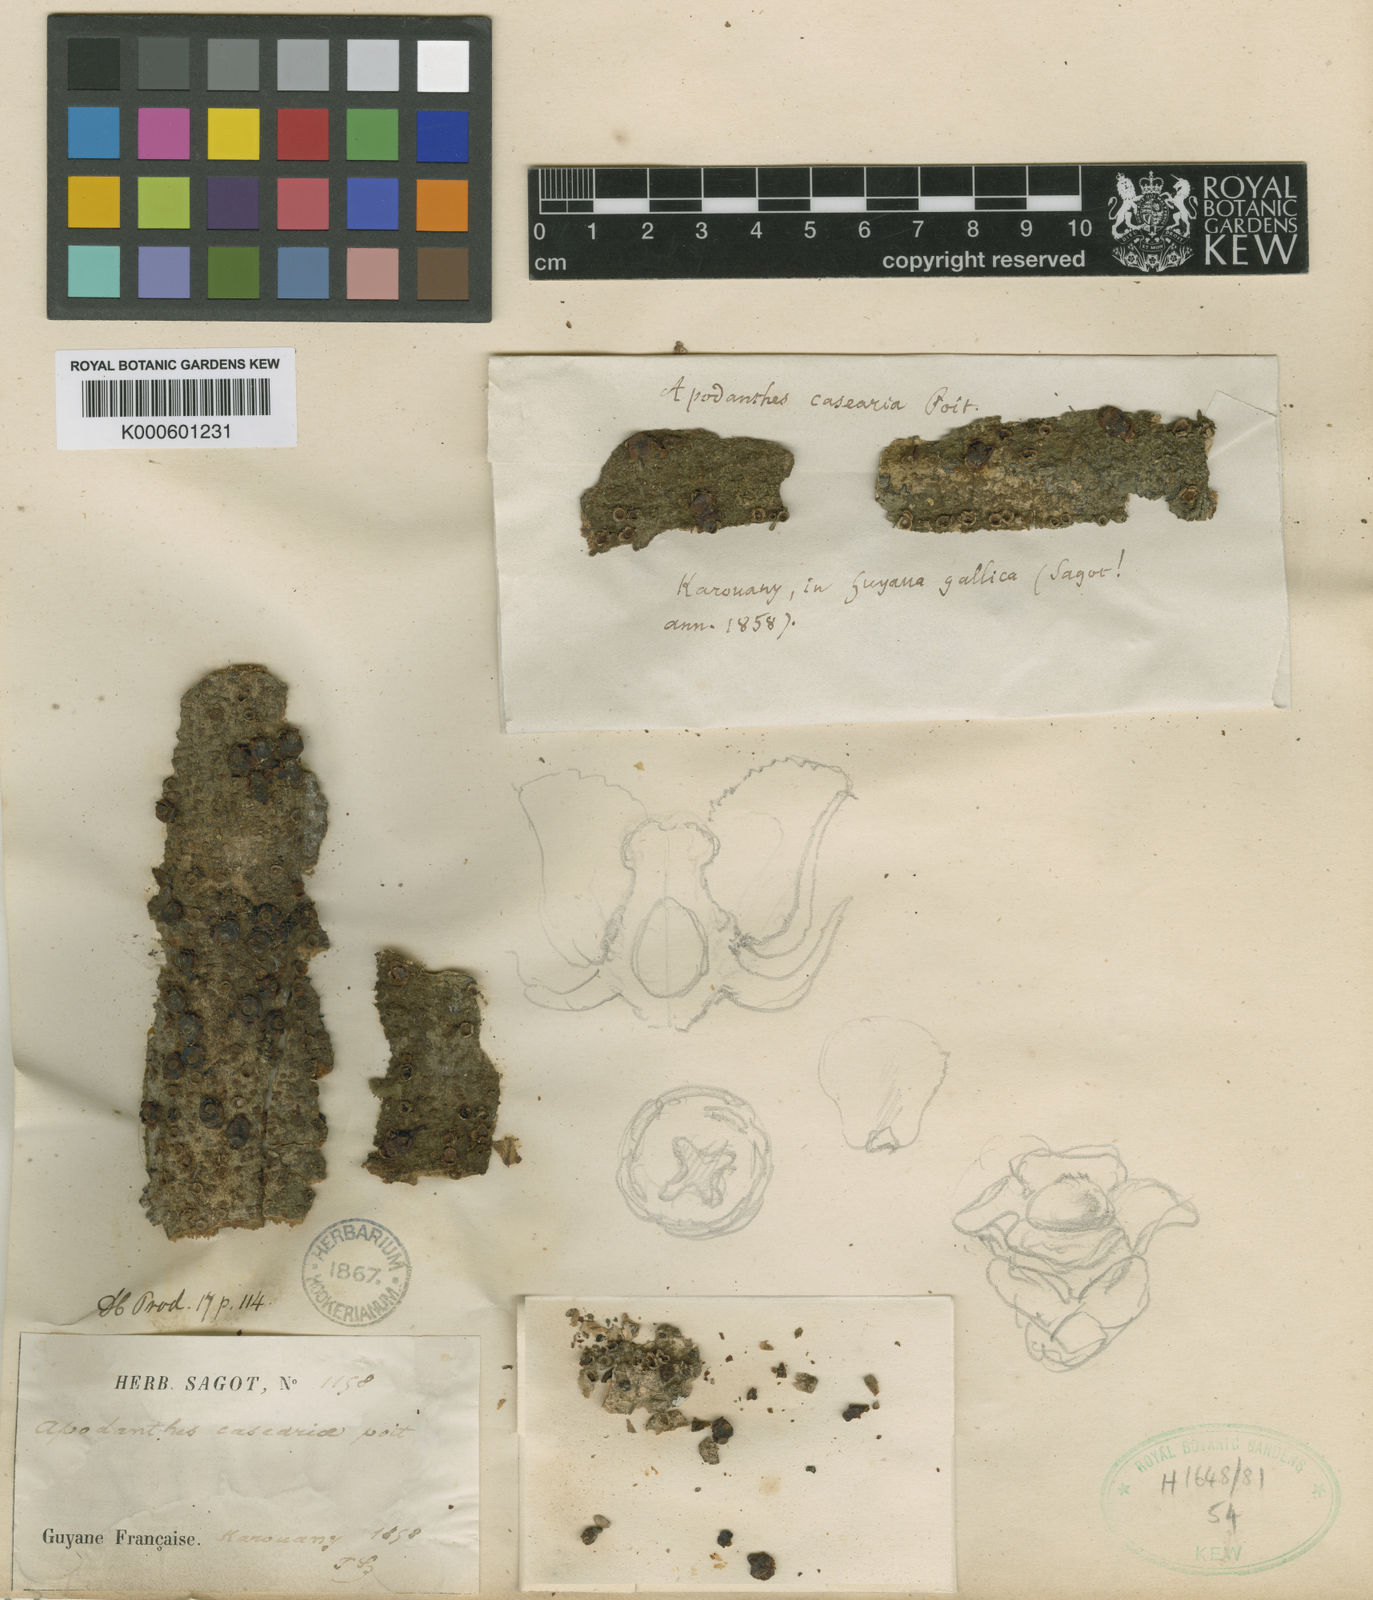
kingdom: Plantae
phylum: Tracheophyta
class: Magnoliopsida
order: Cucurbitales
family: Apodanthaceae
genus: Apodanthes
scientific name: Apodanthes caseariae
